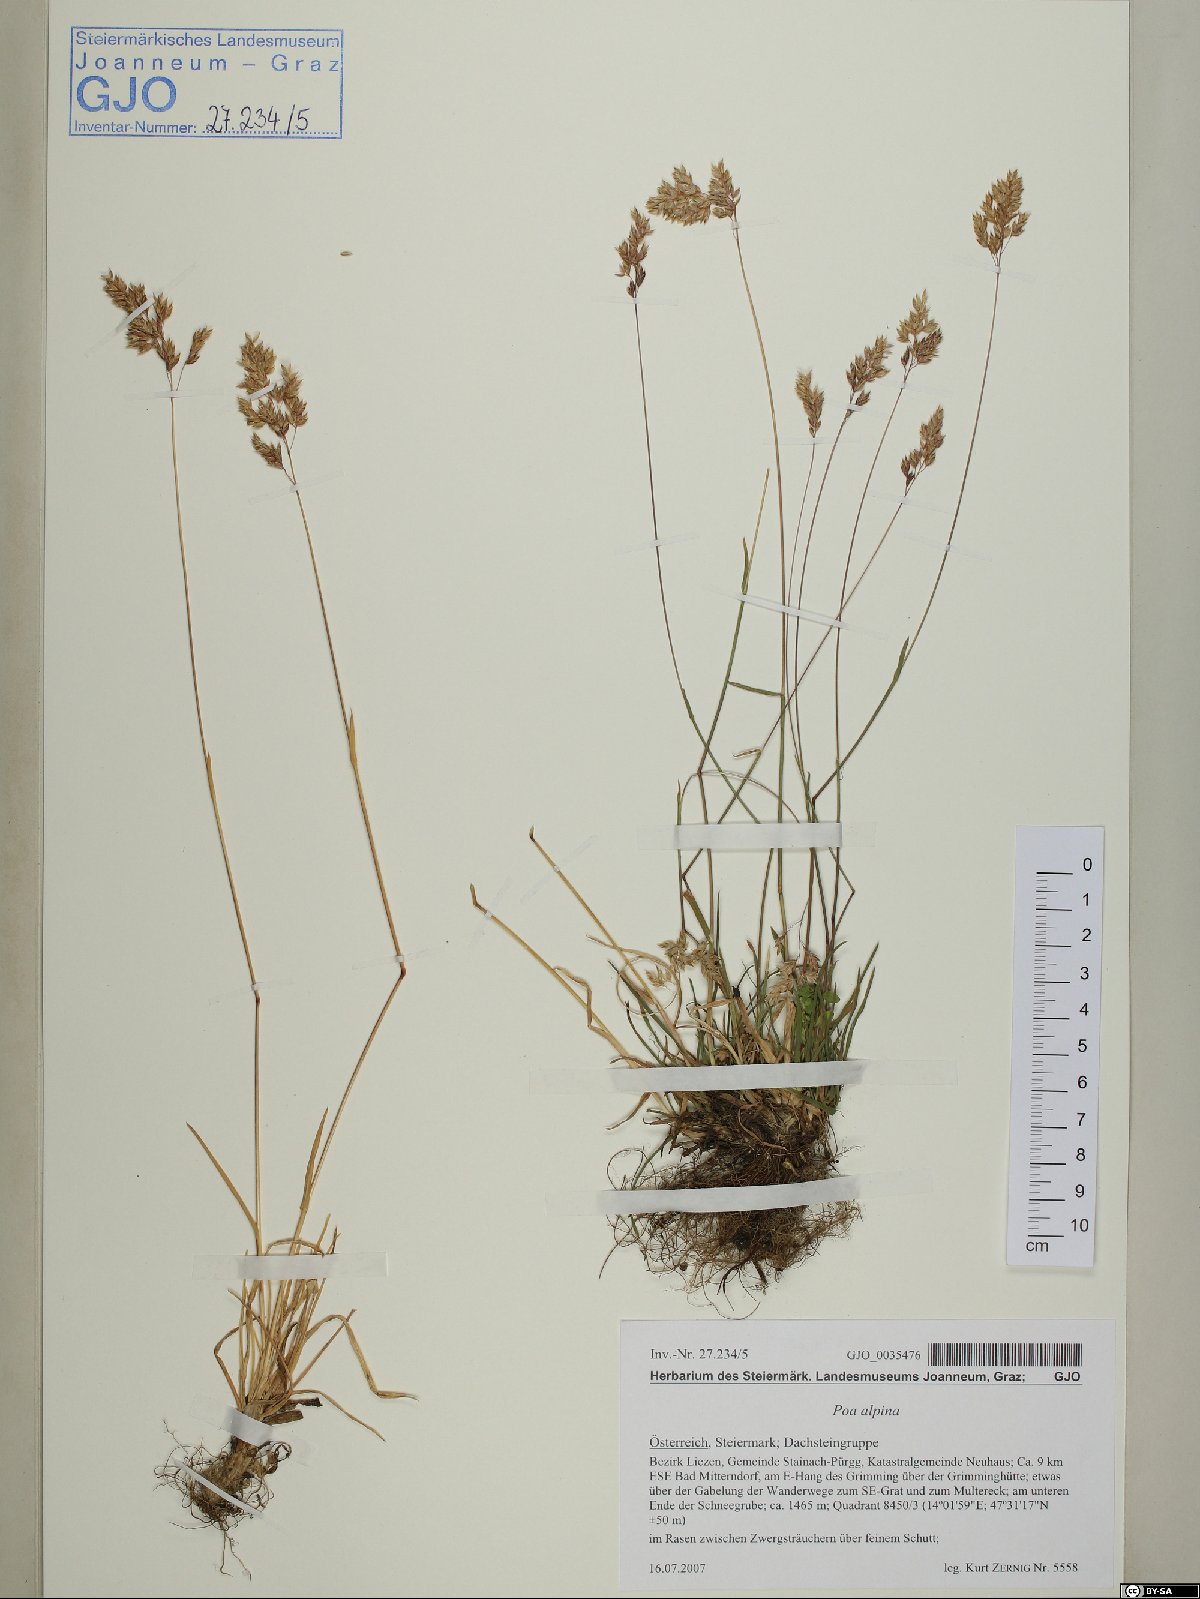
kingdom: Plantae
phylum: Tracheophyta
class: Liliopsida
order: Poales
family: Poaceae
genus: Poa
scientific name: Poa alpina
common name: Alpine bluegrass
